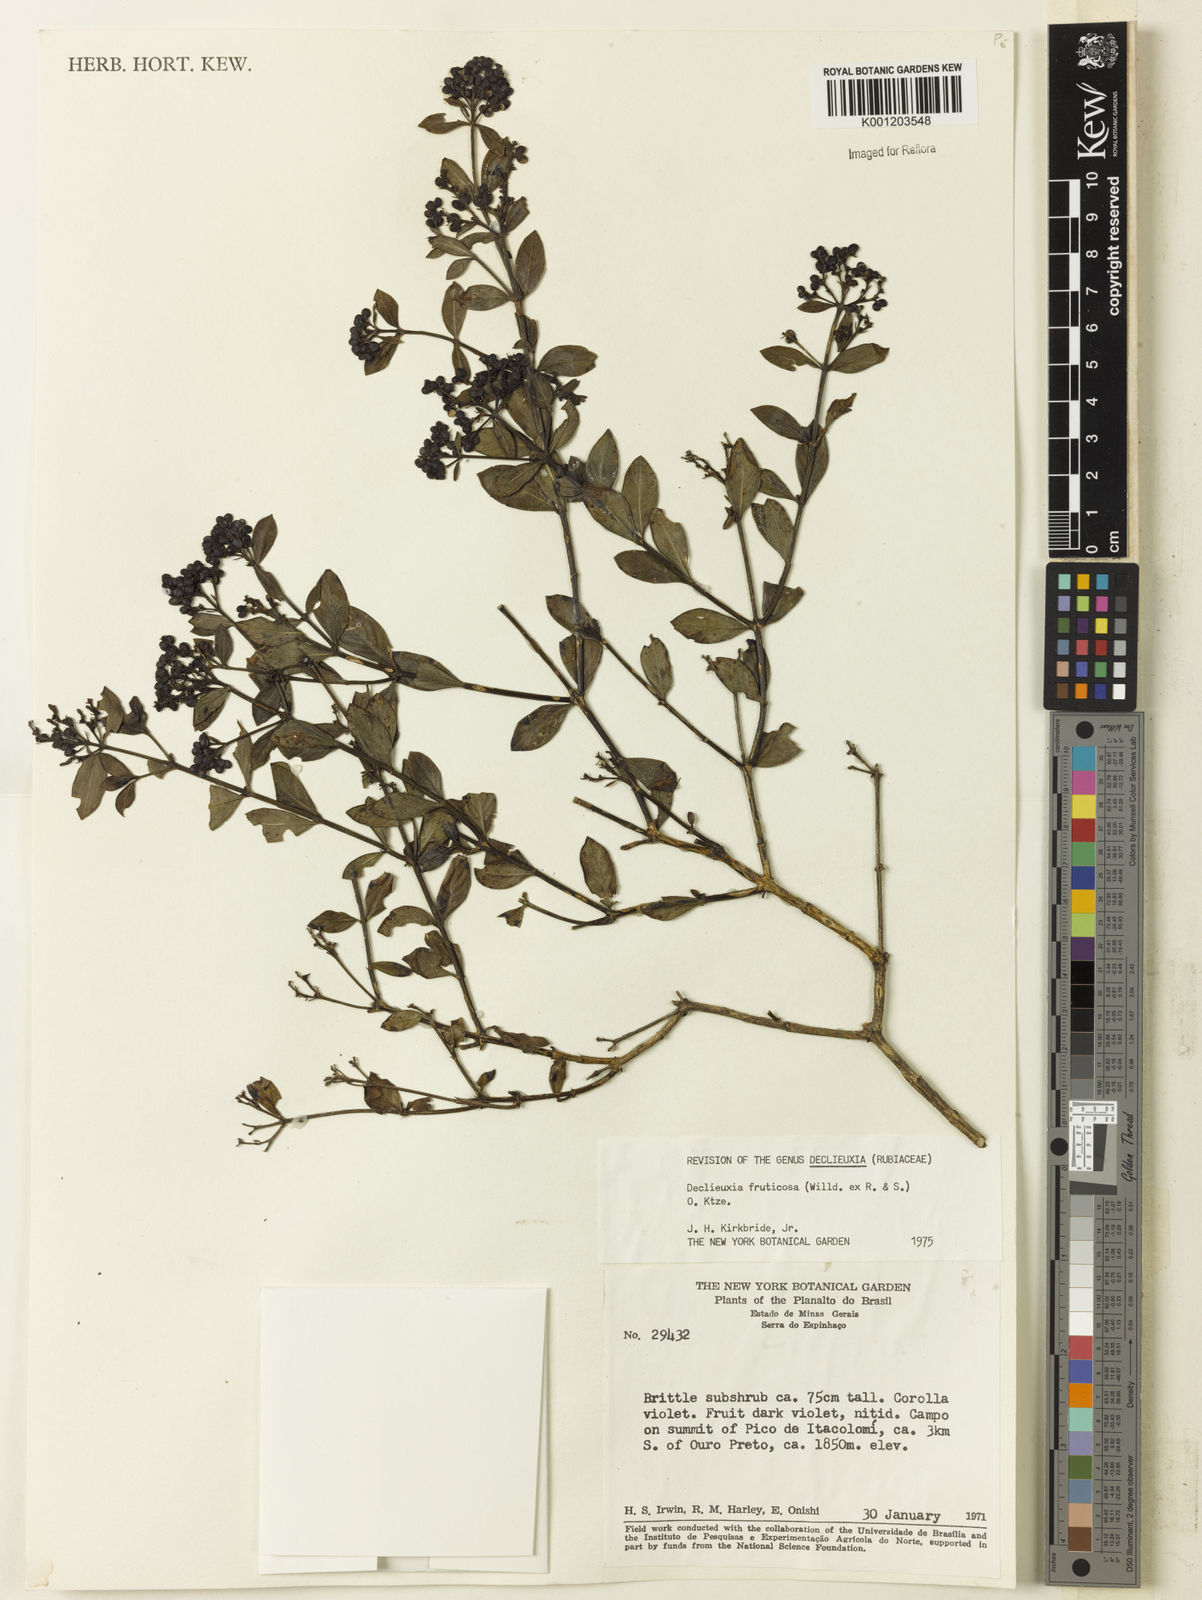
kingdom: Plantae
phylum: Tracheophyta
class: Magnoliopsida
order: Gentianales
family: Rubiaceae
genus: Declieuxia
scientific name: Declieuxia fruticosa
